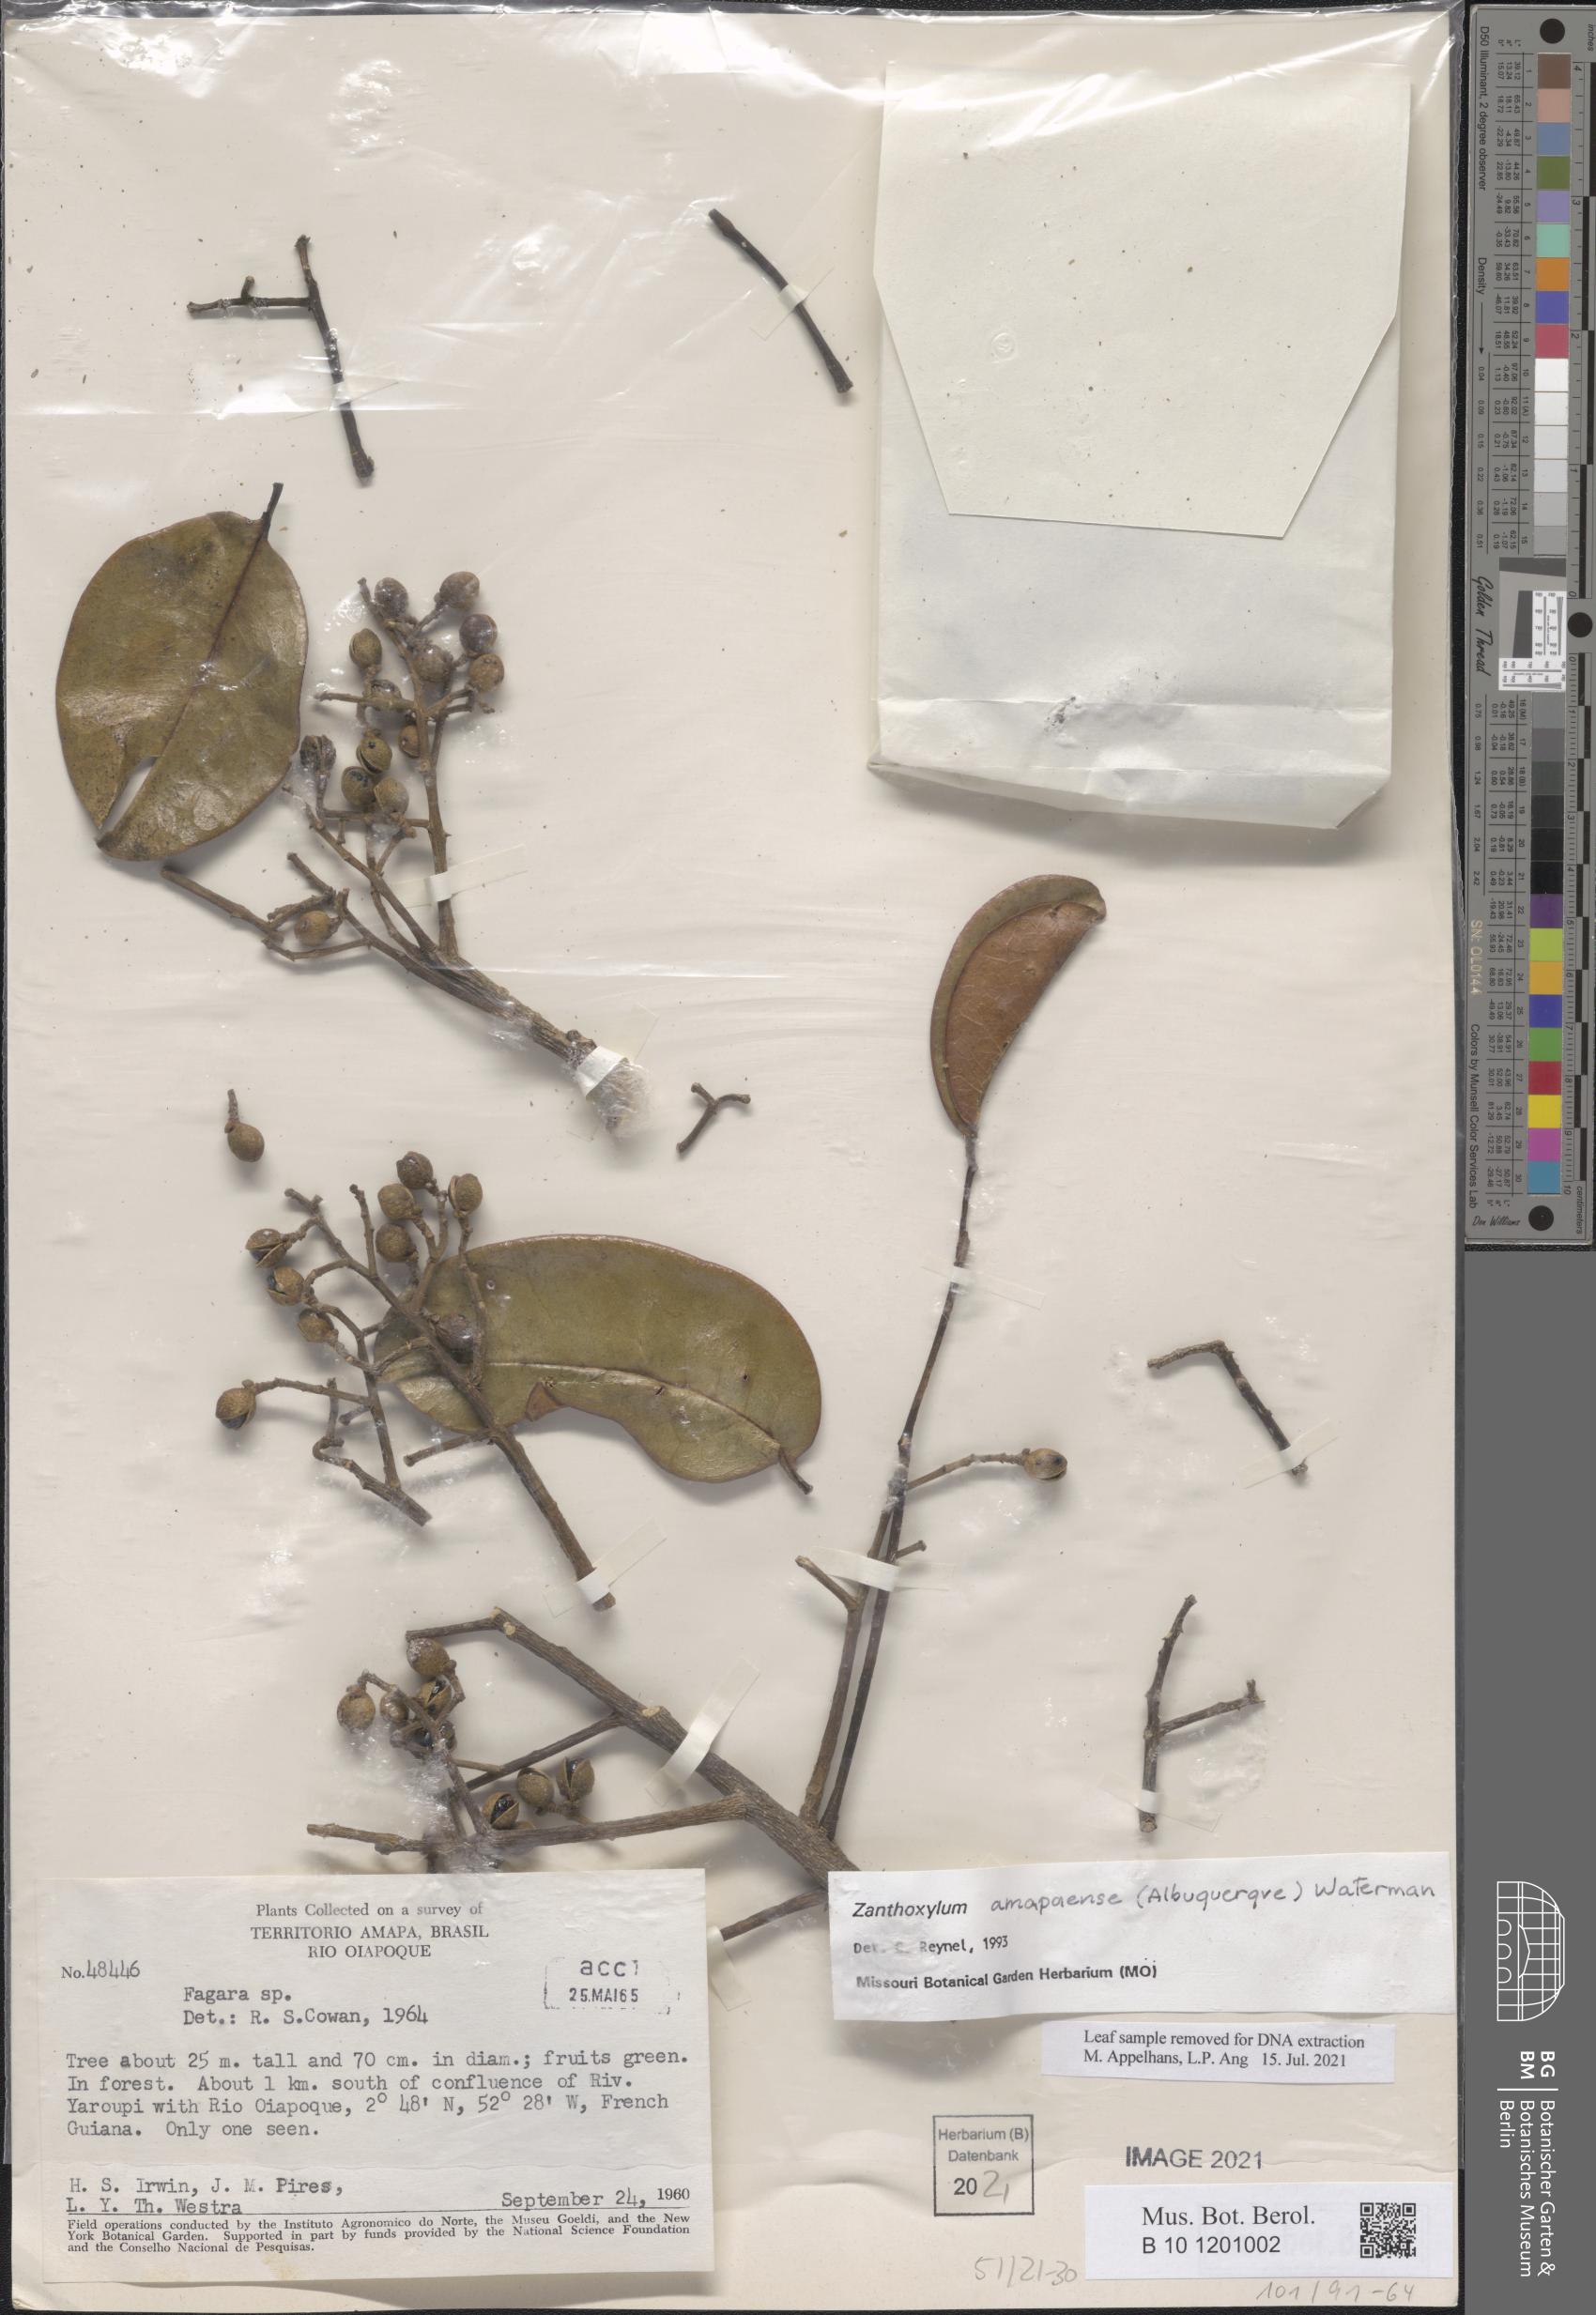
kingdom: Plantae
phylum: Tracheophyta
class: Magnoliopsida
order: Sapindales
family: Rutaceae
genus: Zanthoxylum
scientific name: Zanthoxylum amapaense
